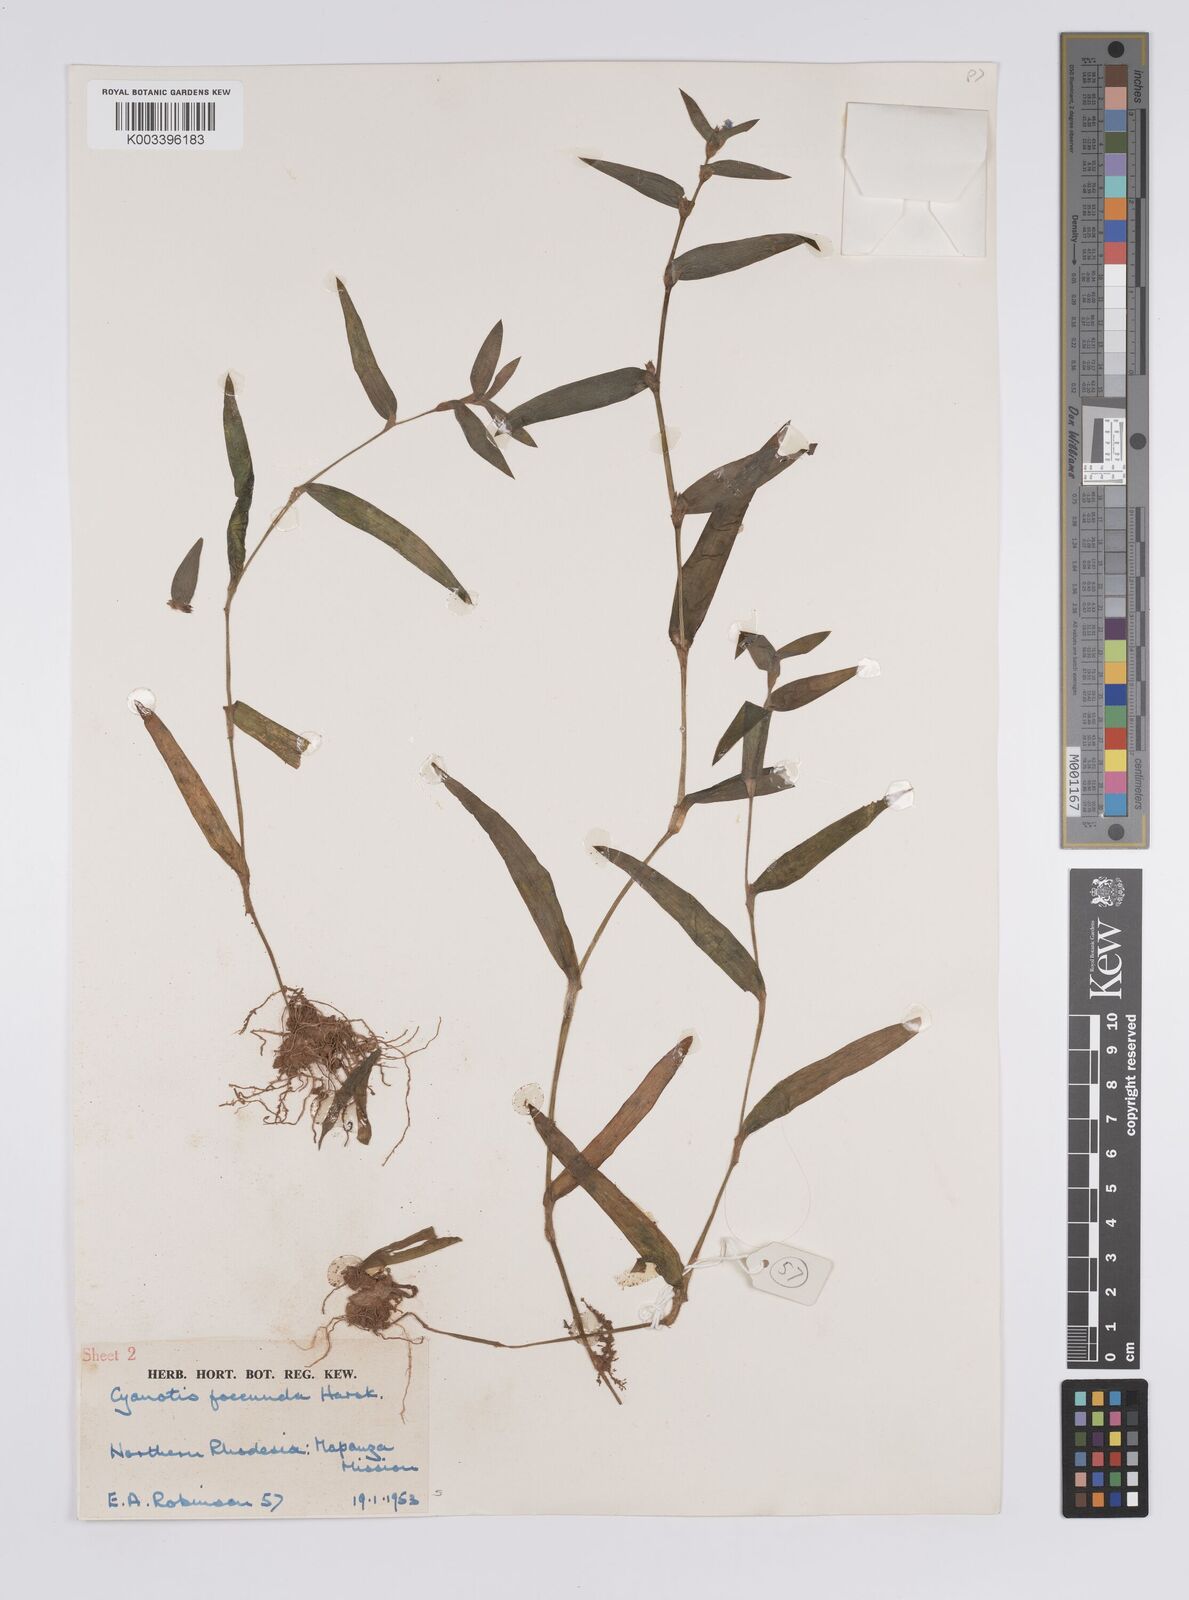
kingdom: Plantae
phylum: Tracheophyta
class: Liliopsida
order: Commelinales
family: Commelinaceae
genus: Cyanotis
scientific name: Cyanotis foecunda
